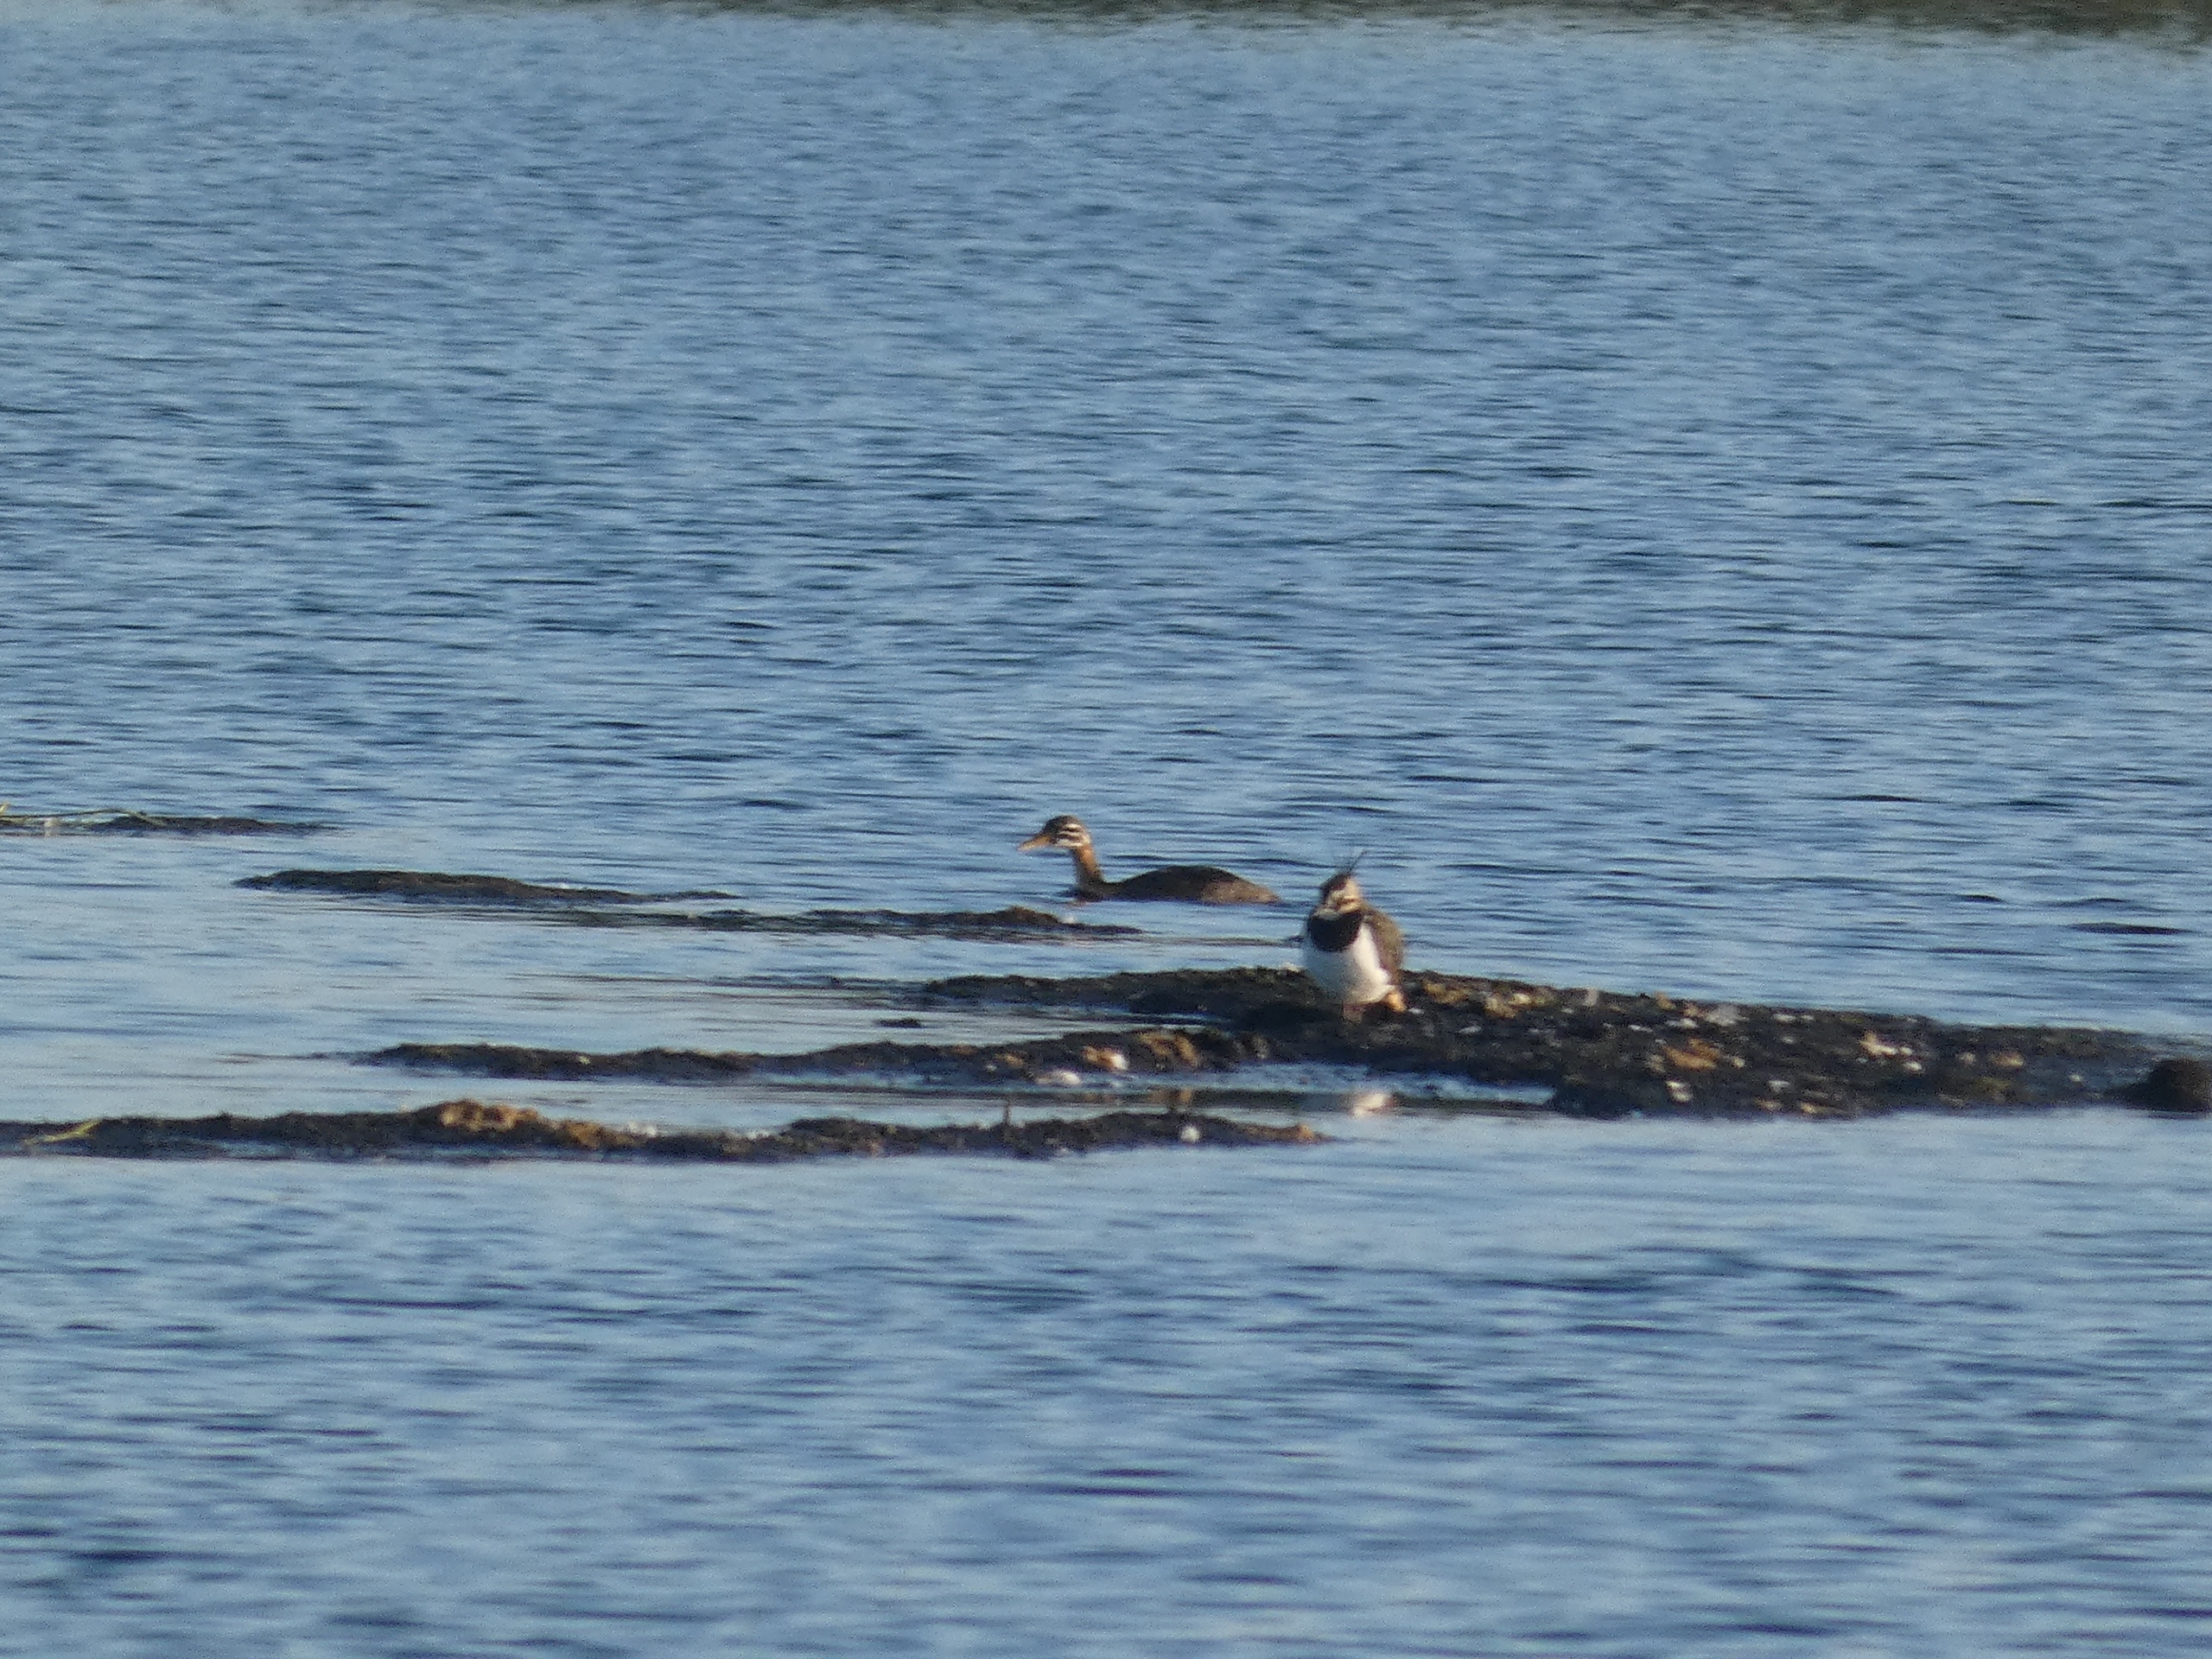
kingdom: Animalia
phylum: Chordata
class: Aves
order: Podicipediformes
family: Podicipedidae
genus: Podiceps
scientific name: Podiceps grisegena
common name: Gråstrubet lappedykker
